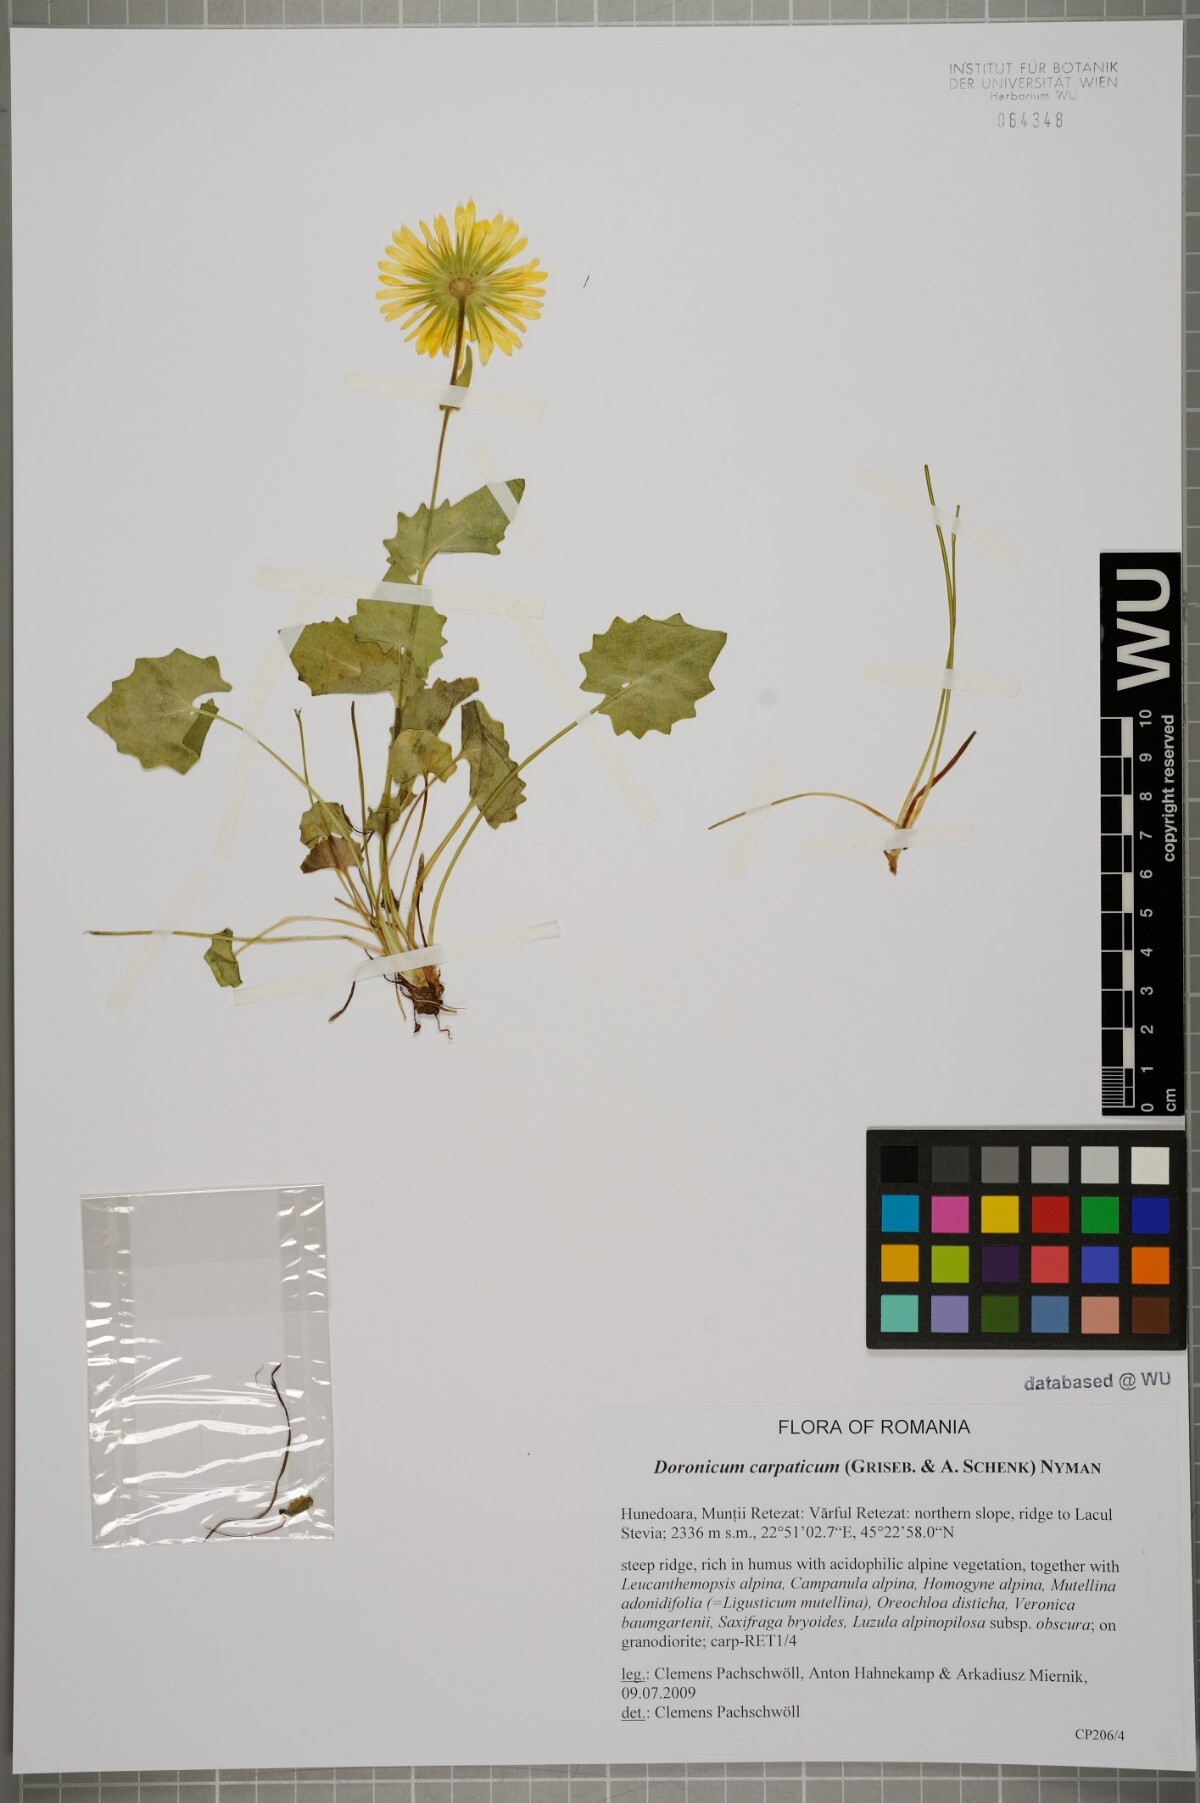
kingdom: Plantae
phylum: Tracheophyta
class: Magnoliopsida
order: Asterales
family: Asteraceae
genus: Doronicum
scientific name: Doronicum carpaticum
